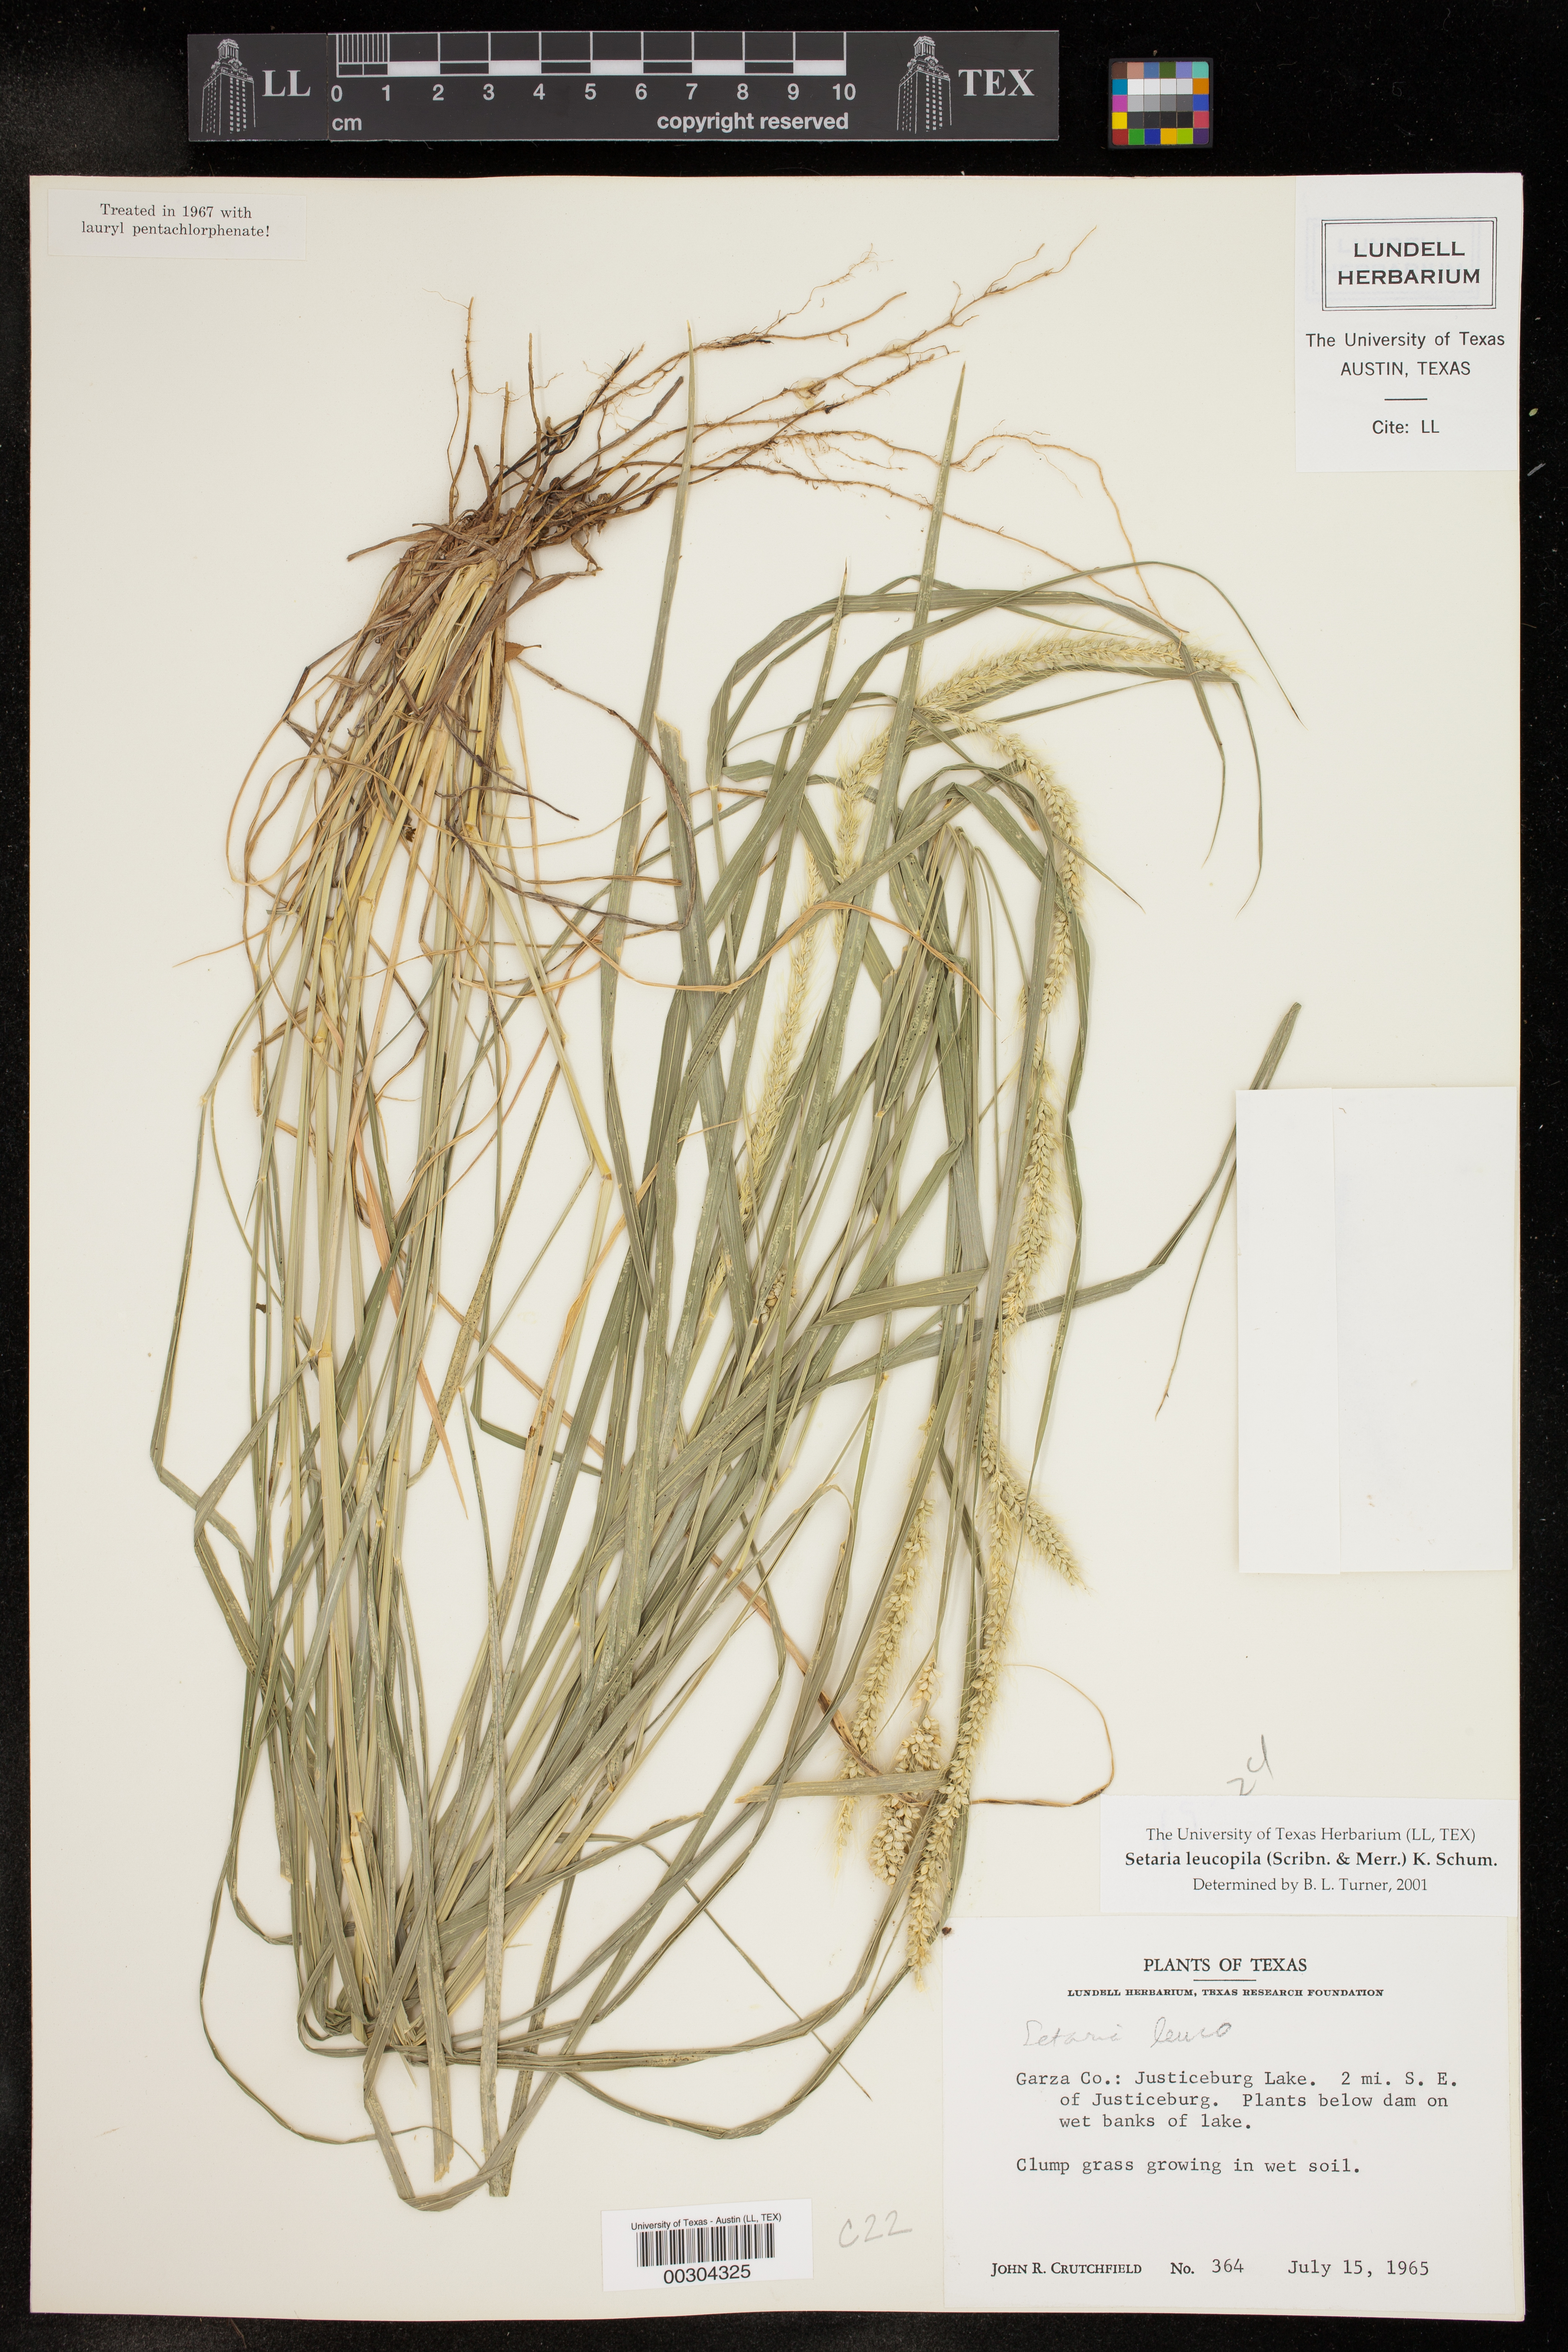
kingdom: Plantae
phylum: Tracheophyta
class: Liliopsida
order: Poales
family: Poaceae
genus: Setaria
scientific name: Setaria leucopila
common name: Plains bristle grass
